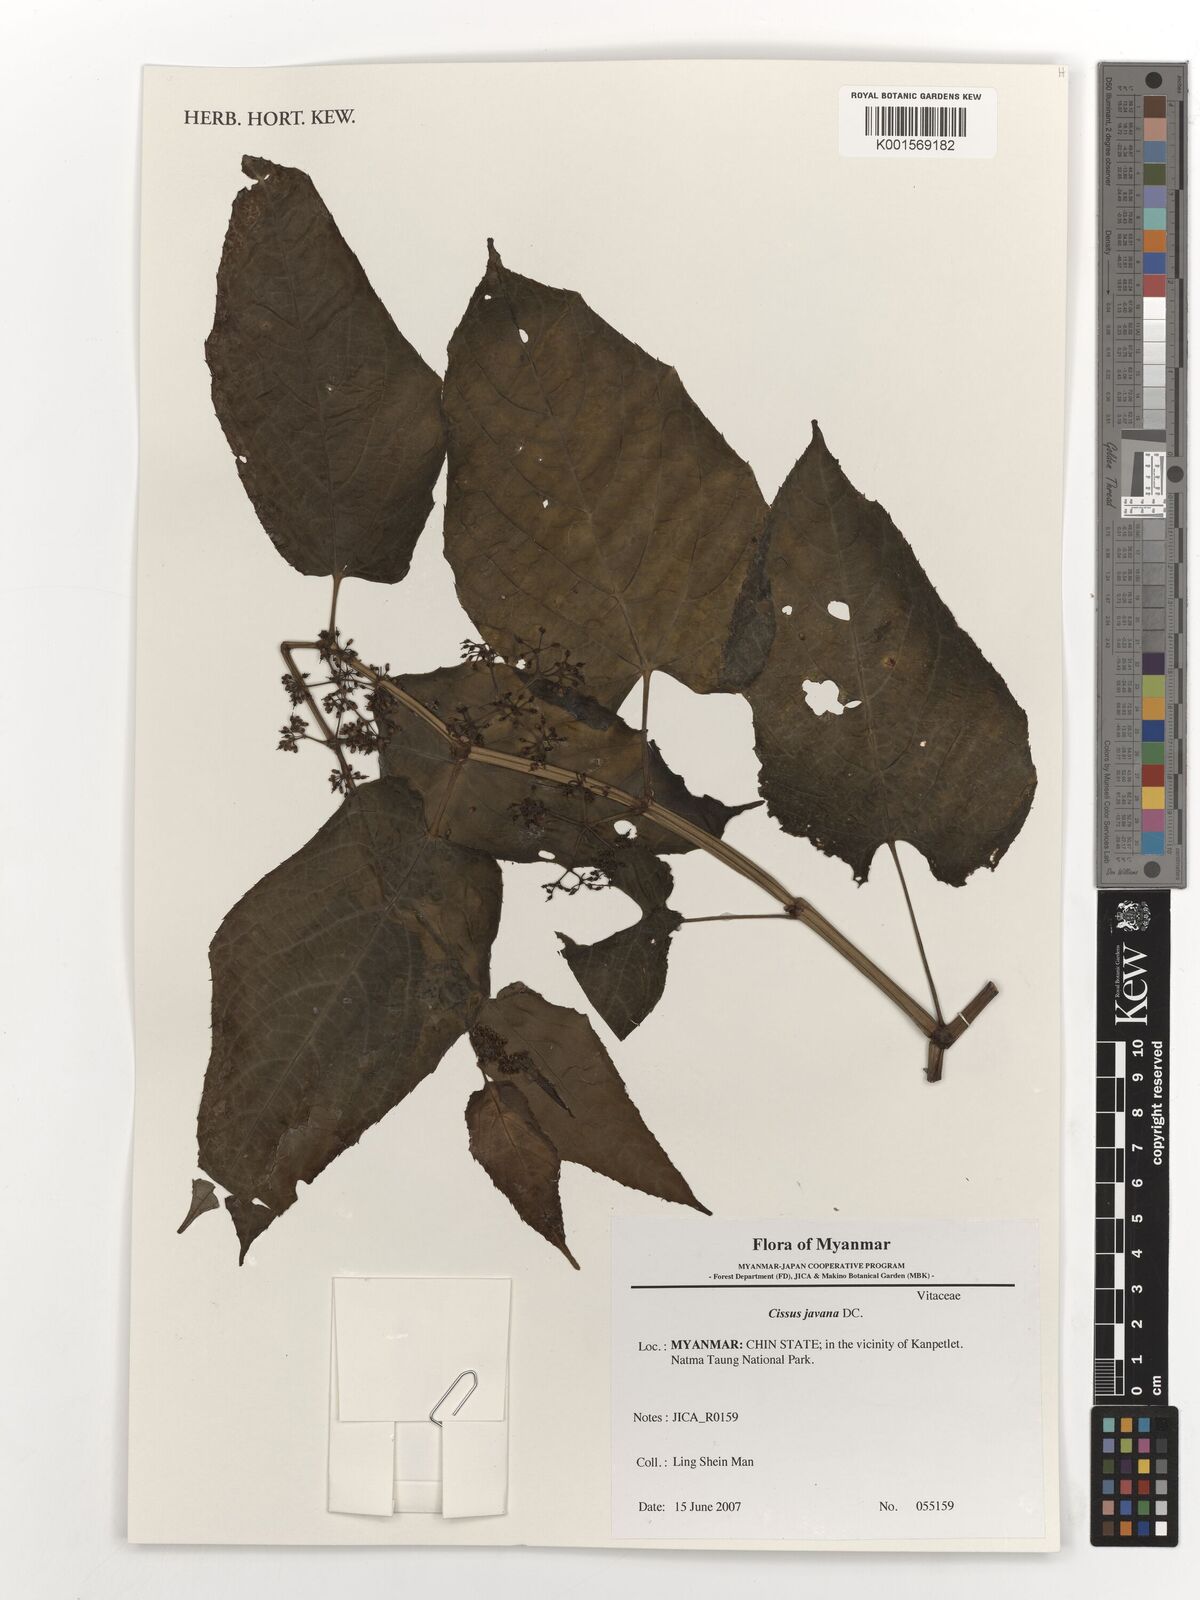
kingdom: Plantae
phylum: Tracheophyta
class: Magnoliopsida
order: Vitales
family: Vitaceae
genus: Cissus
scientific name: Cissus discolor
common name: Climbing-begonia
